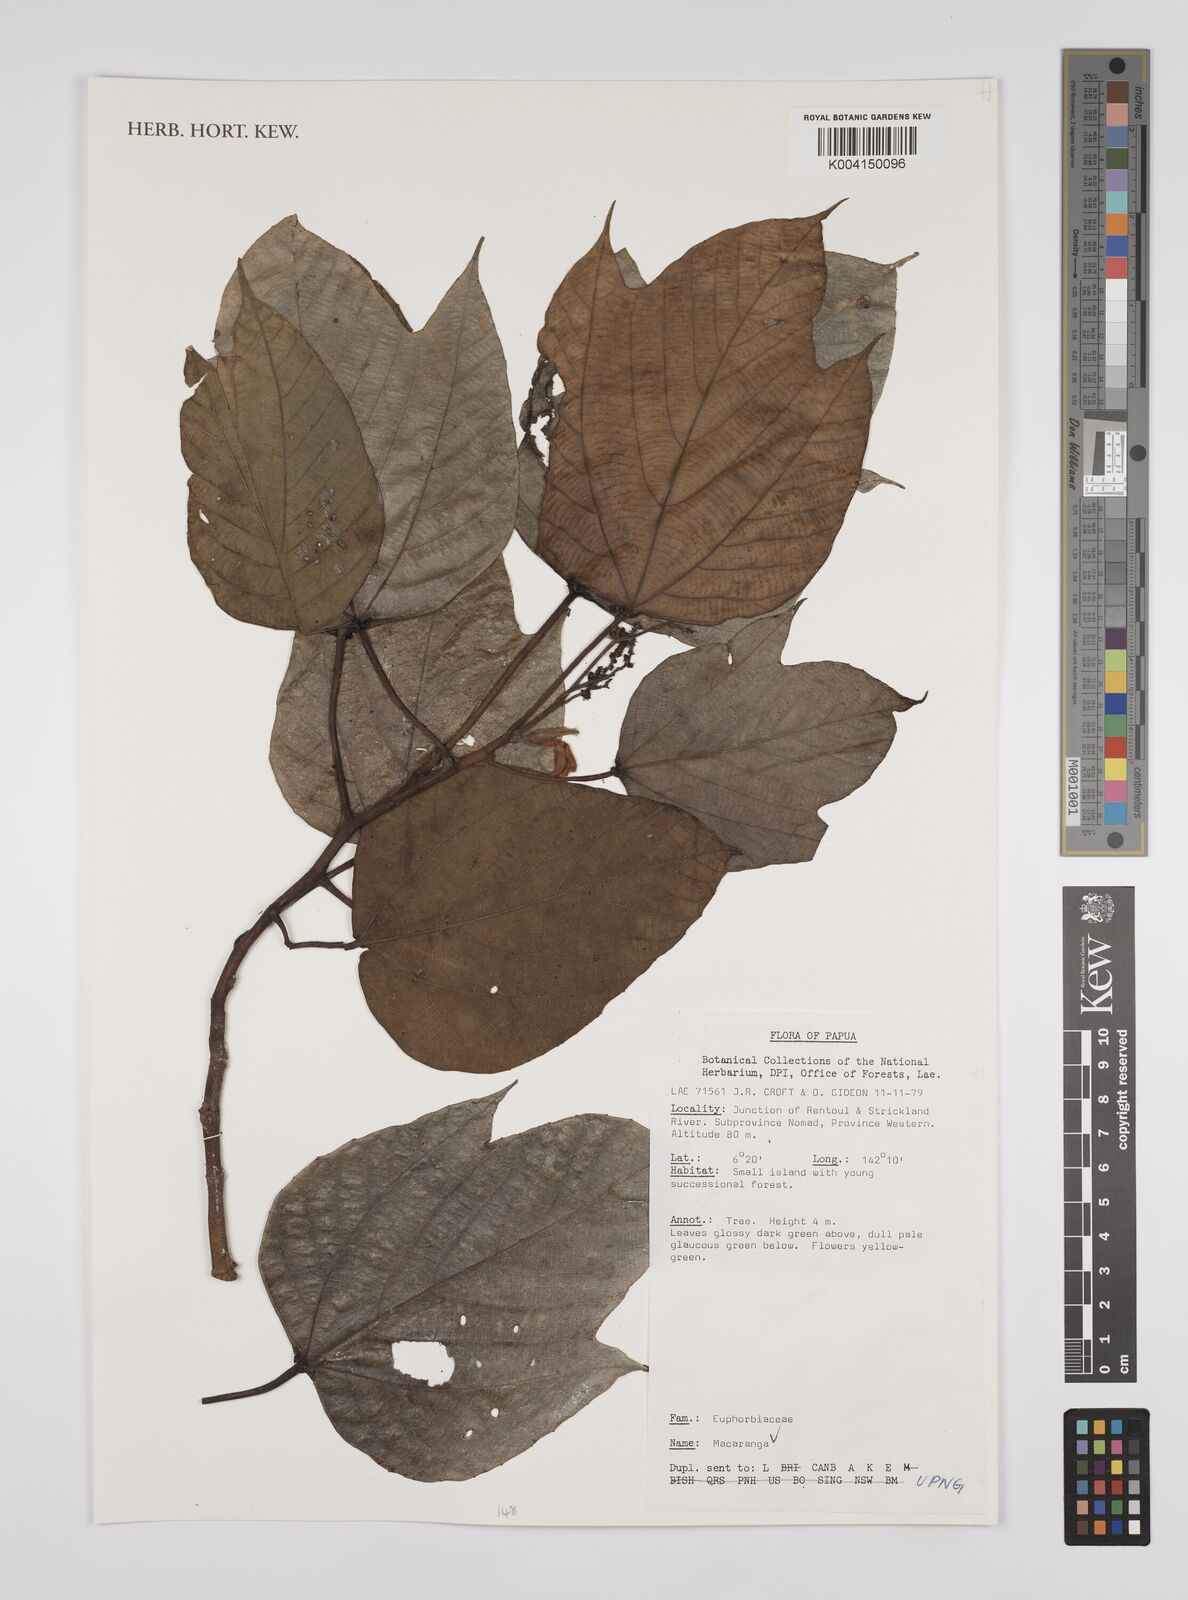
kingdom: Plantae
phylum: Tracheophyta
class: Magnoliopsida
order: Malpighiales
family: Euphorbiaceae
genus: Macaranga
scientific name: Macaranga
